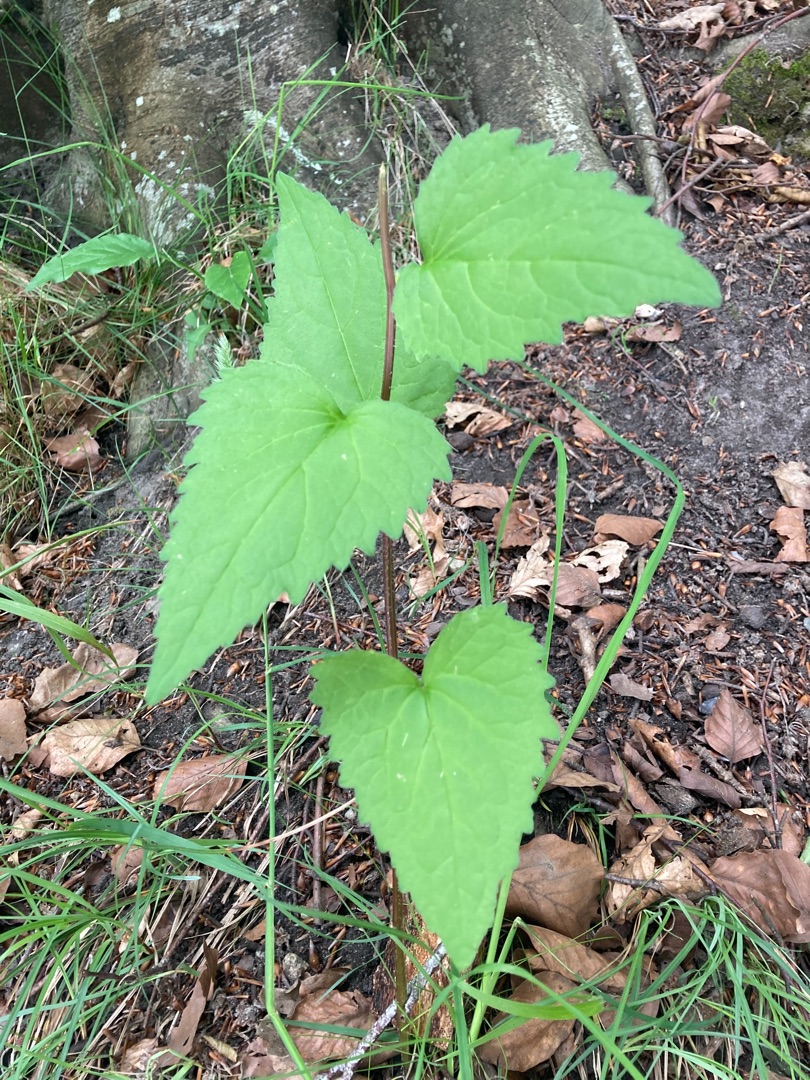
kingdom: Plantae
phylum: Tracheophyta
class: Magnoliopsida
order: Asterales
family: Campanulaceae
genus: Campanula
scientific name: Campanula trachelium
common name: Nælde-klokke
